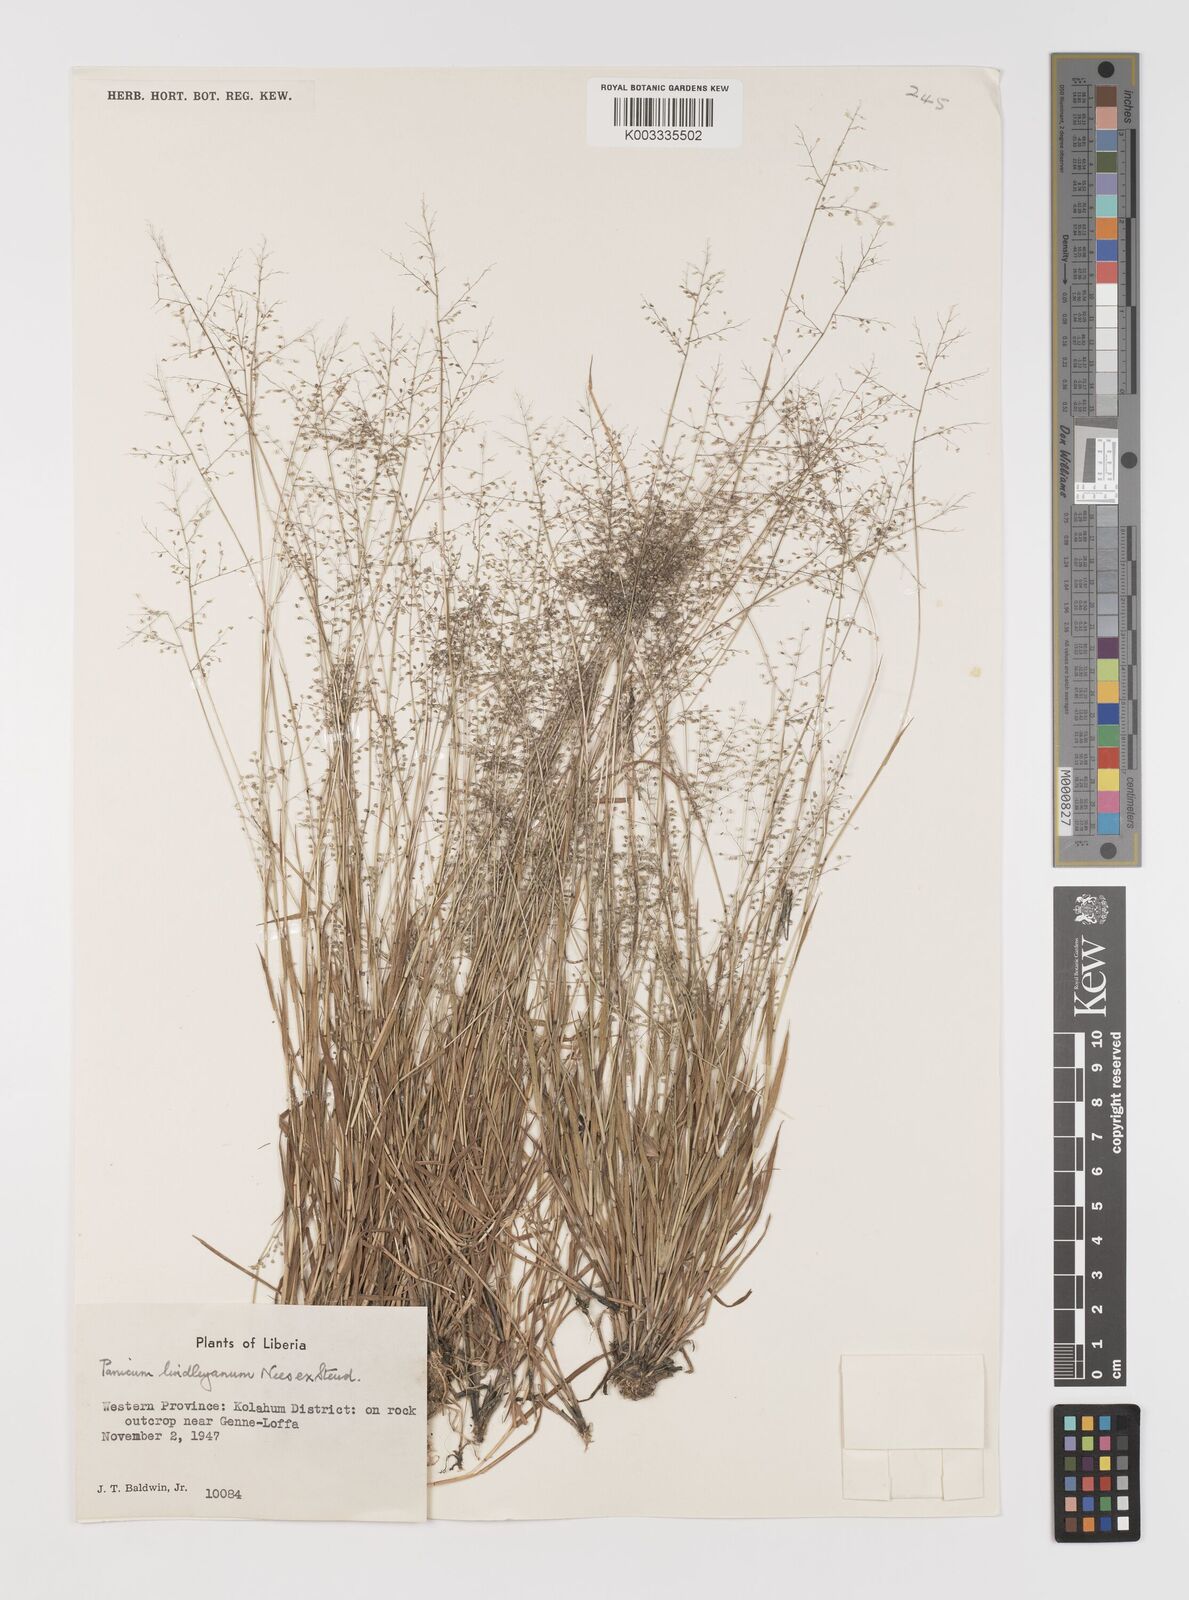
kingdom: Plantae
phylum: Tracheophyta
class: Liliopsida
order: Poales
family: Poaceae
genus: Trichanthecium
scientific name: Trichanthecium tenellum
